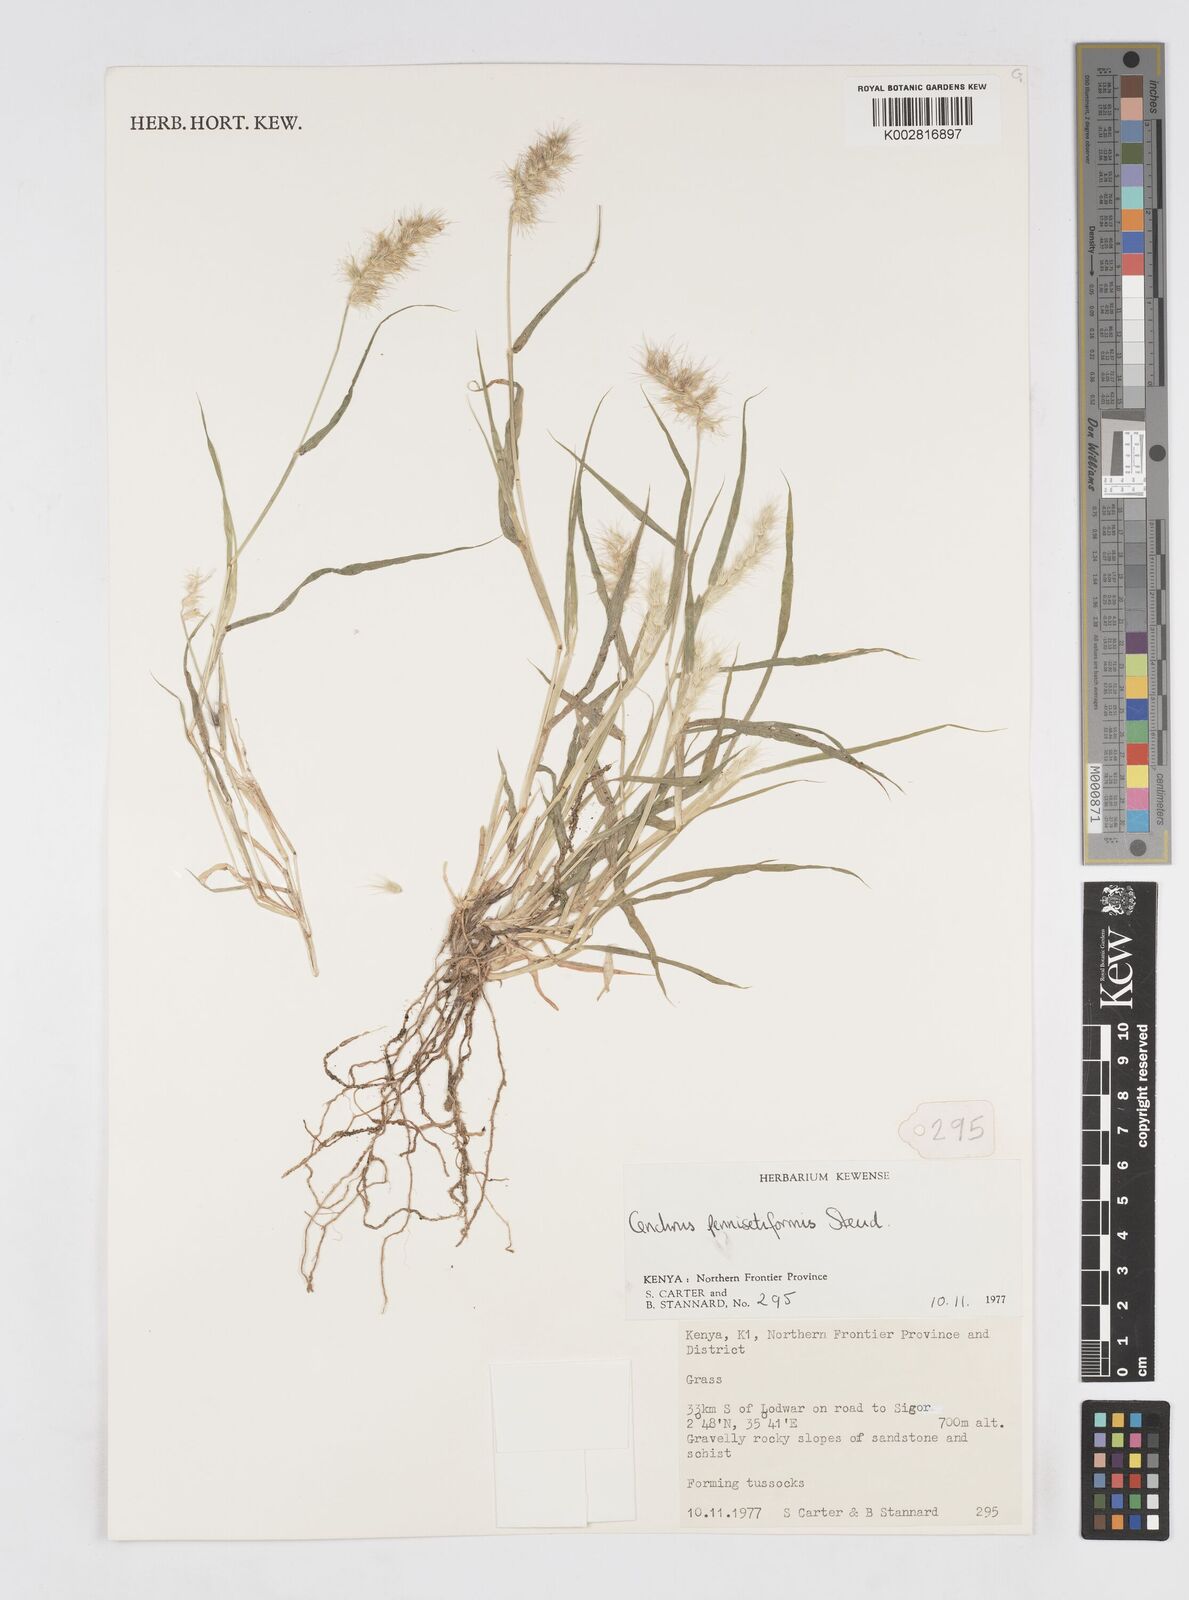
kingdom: Plantae
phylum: Tracheophyta
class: Liliopsida
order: Poales
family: Poaceae
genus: Cenchrus
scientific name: Cenchrus pennisetiformis
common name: Cloncurry
